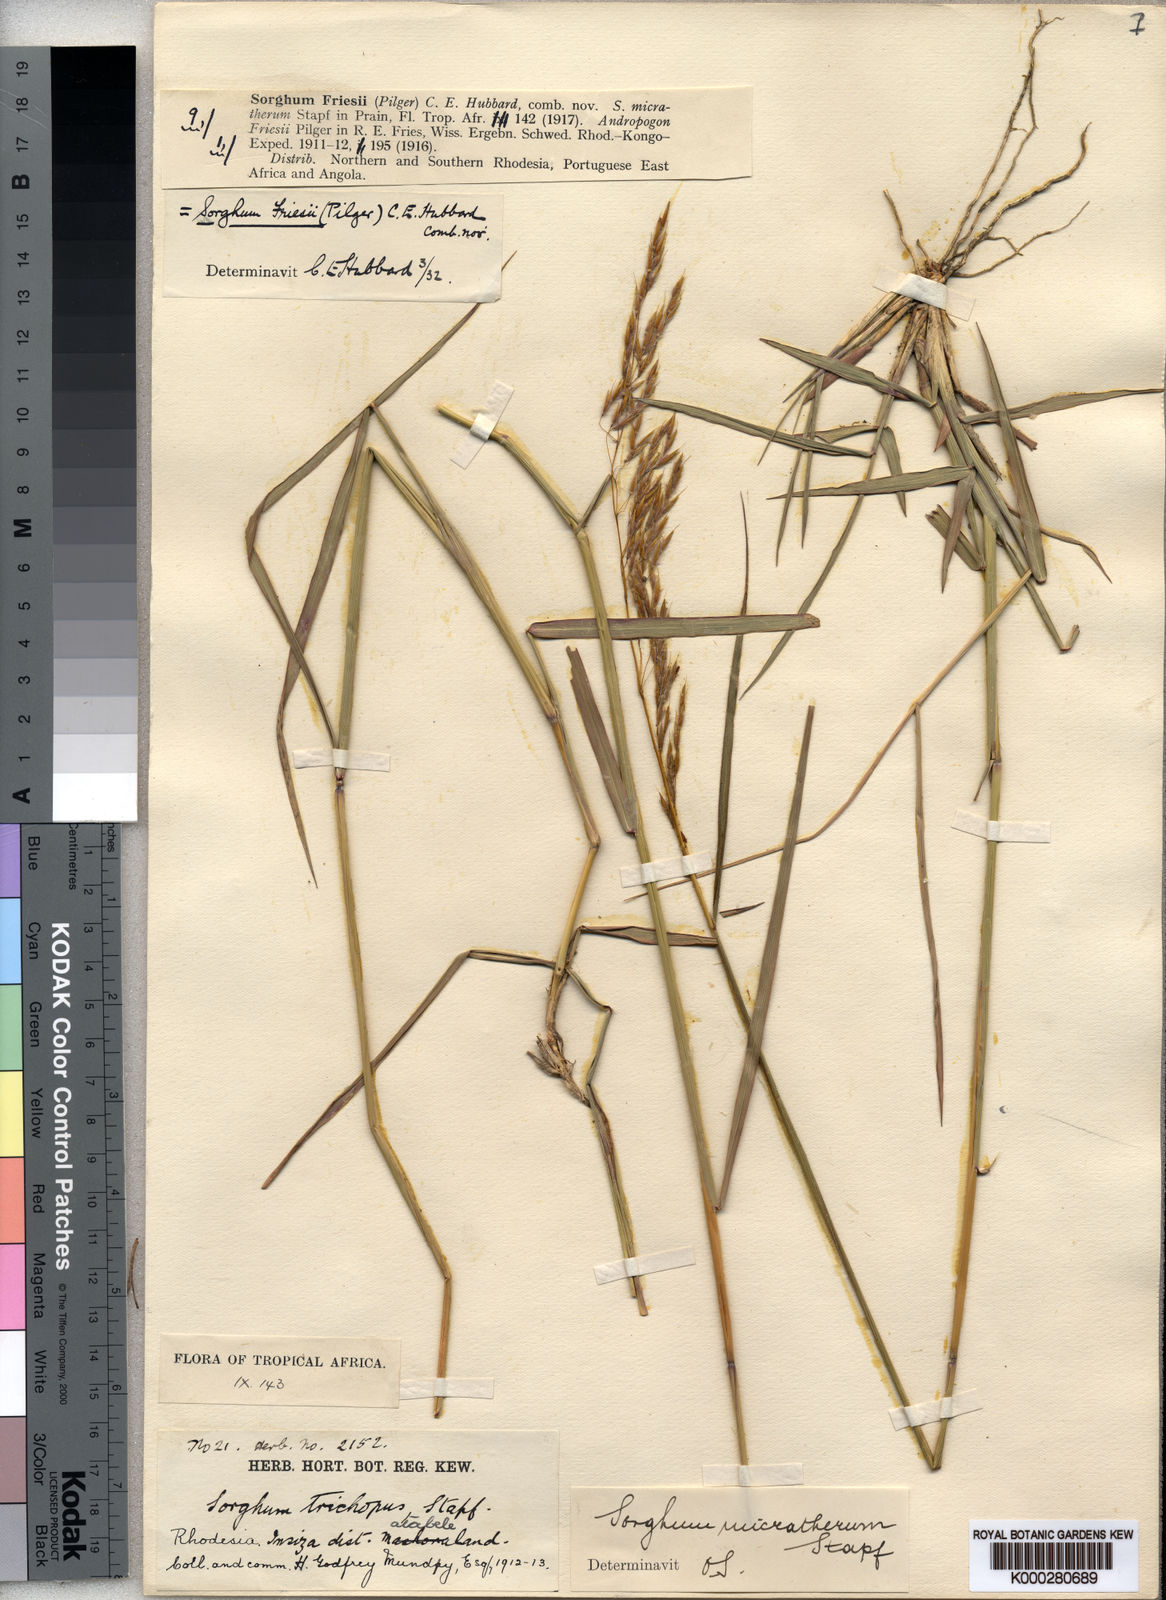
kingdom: Plantae
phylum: Tracheophyta
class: Liliopsida
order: Poales
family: Poaceae
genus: Sorghastrum
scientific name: Sorghastrum nudipes
